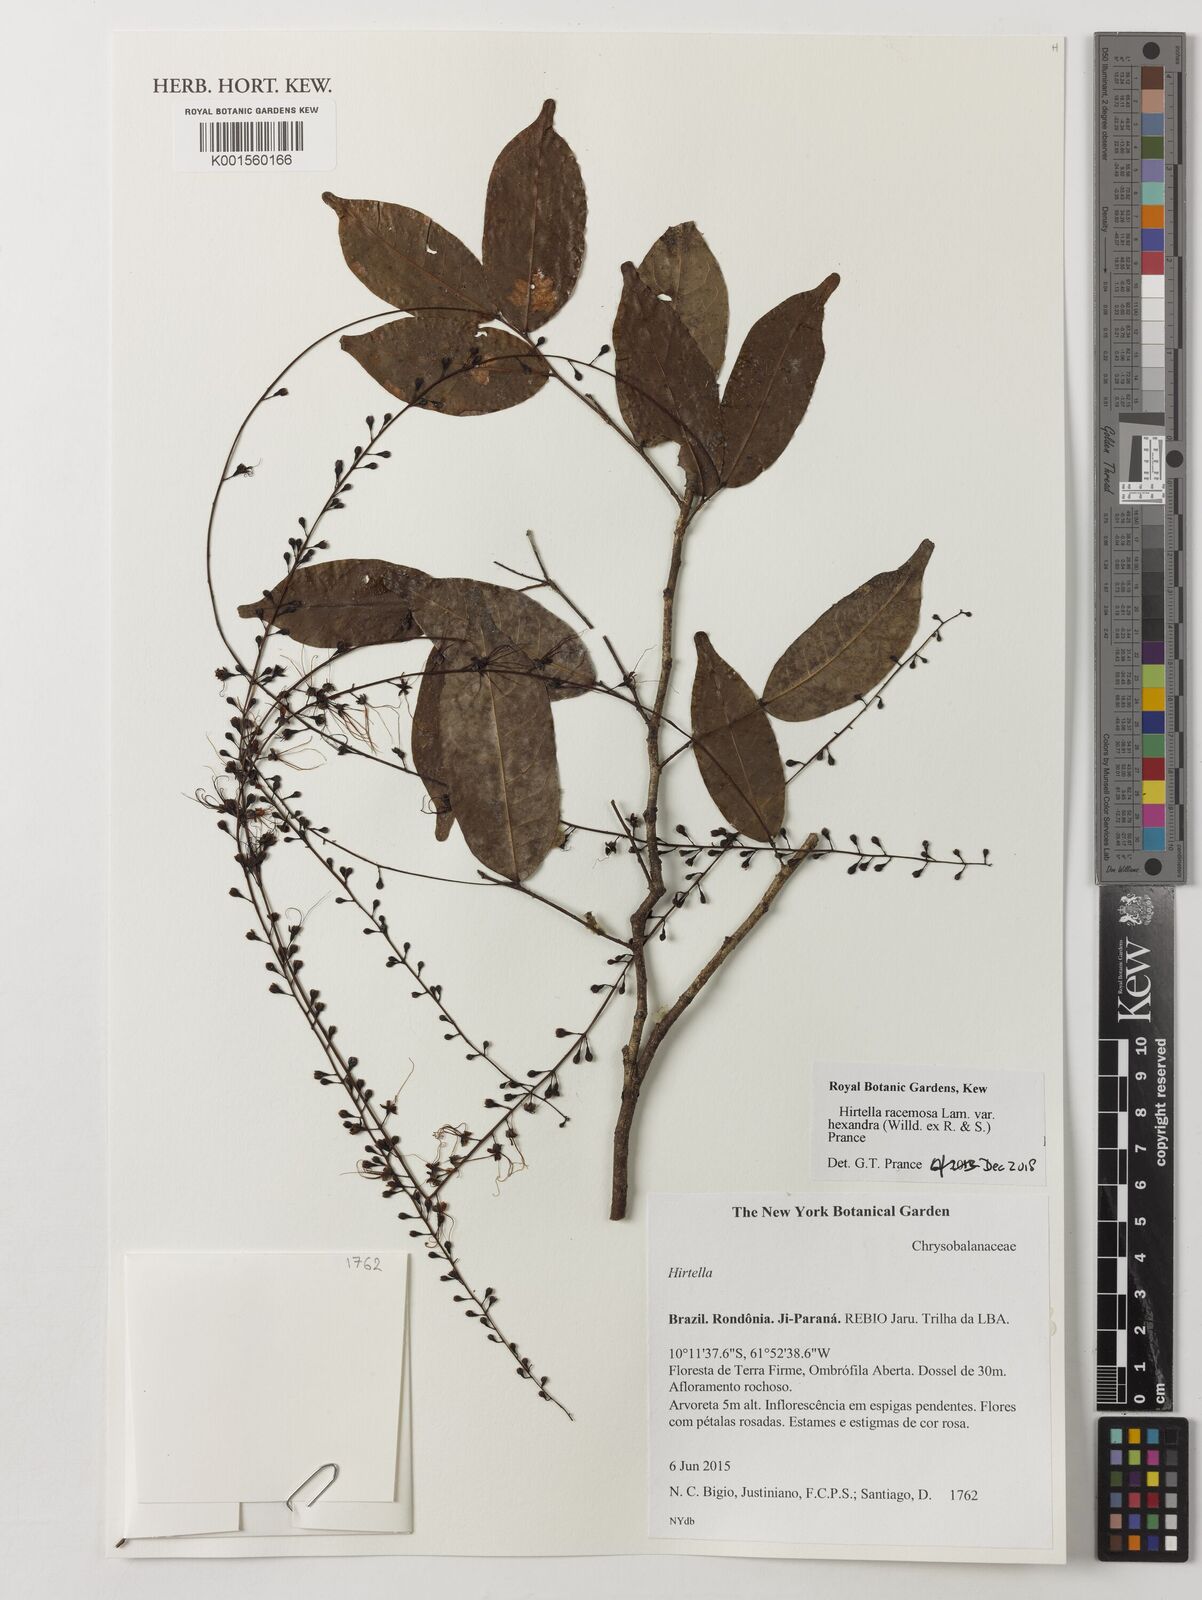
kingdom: Plantae
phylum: Tracheophyta
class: Magnoliopsida
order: Malpighiales
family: Chrysobalanaceae
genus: Hirtella
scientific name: Hirtella racemosa
